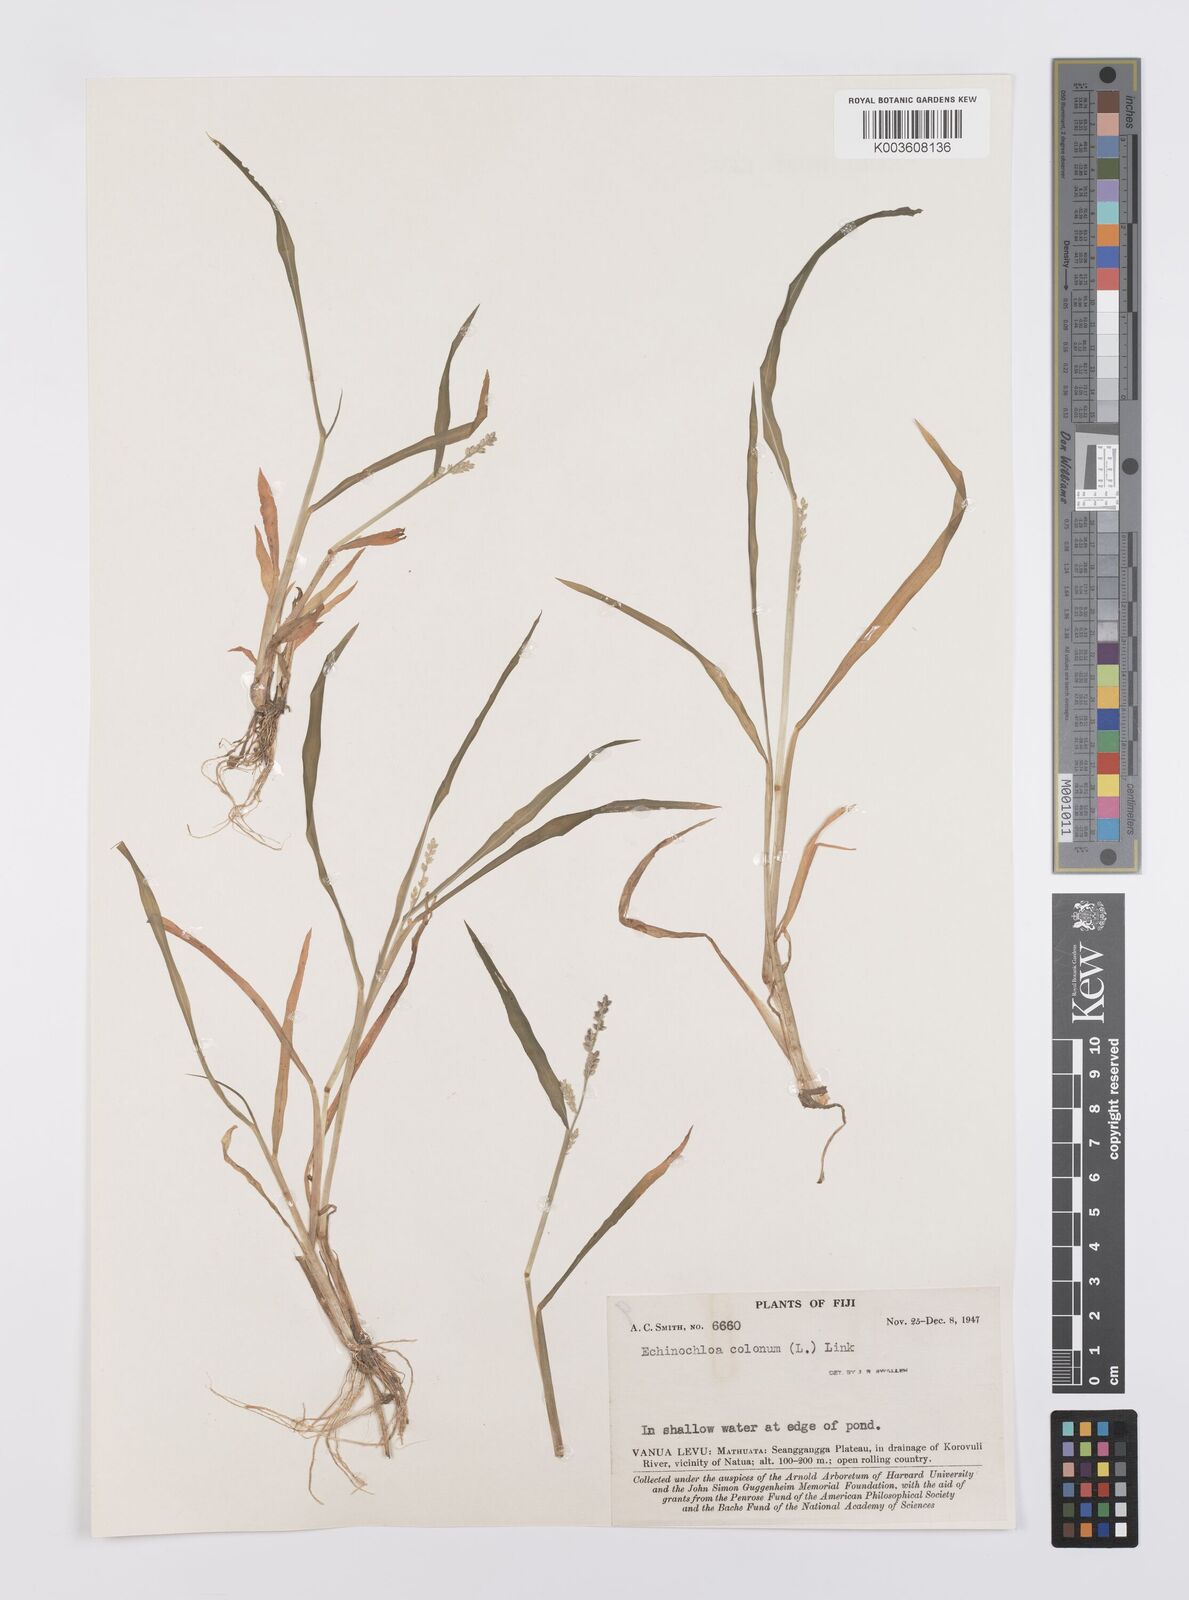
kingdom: Plantae
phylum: Tracheophyta
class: Liliopsida
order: Poales
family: Poaceae
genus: Echinochloa
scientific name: Echinochloa colonum
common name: Jungle rice
